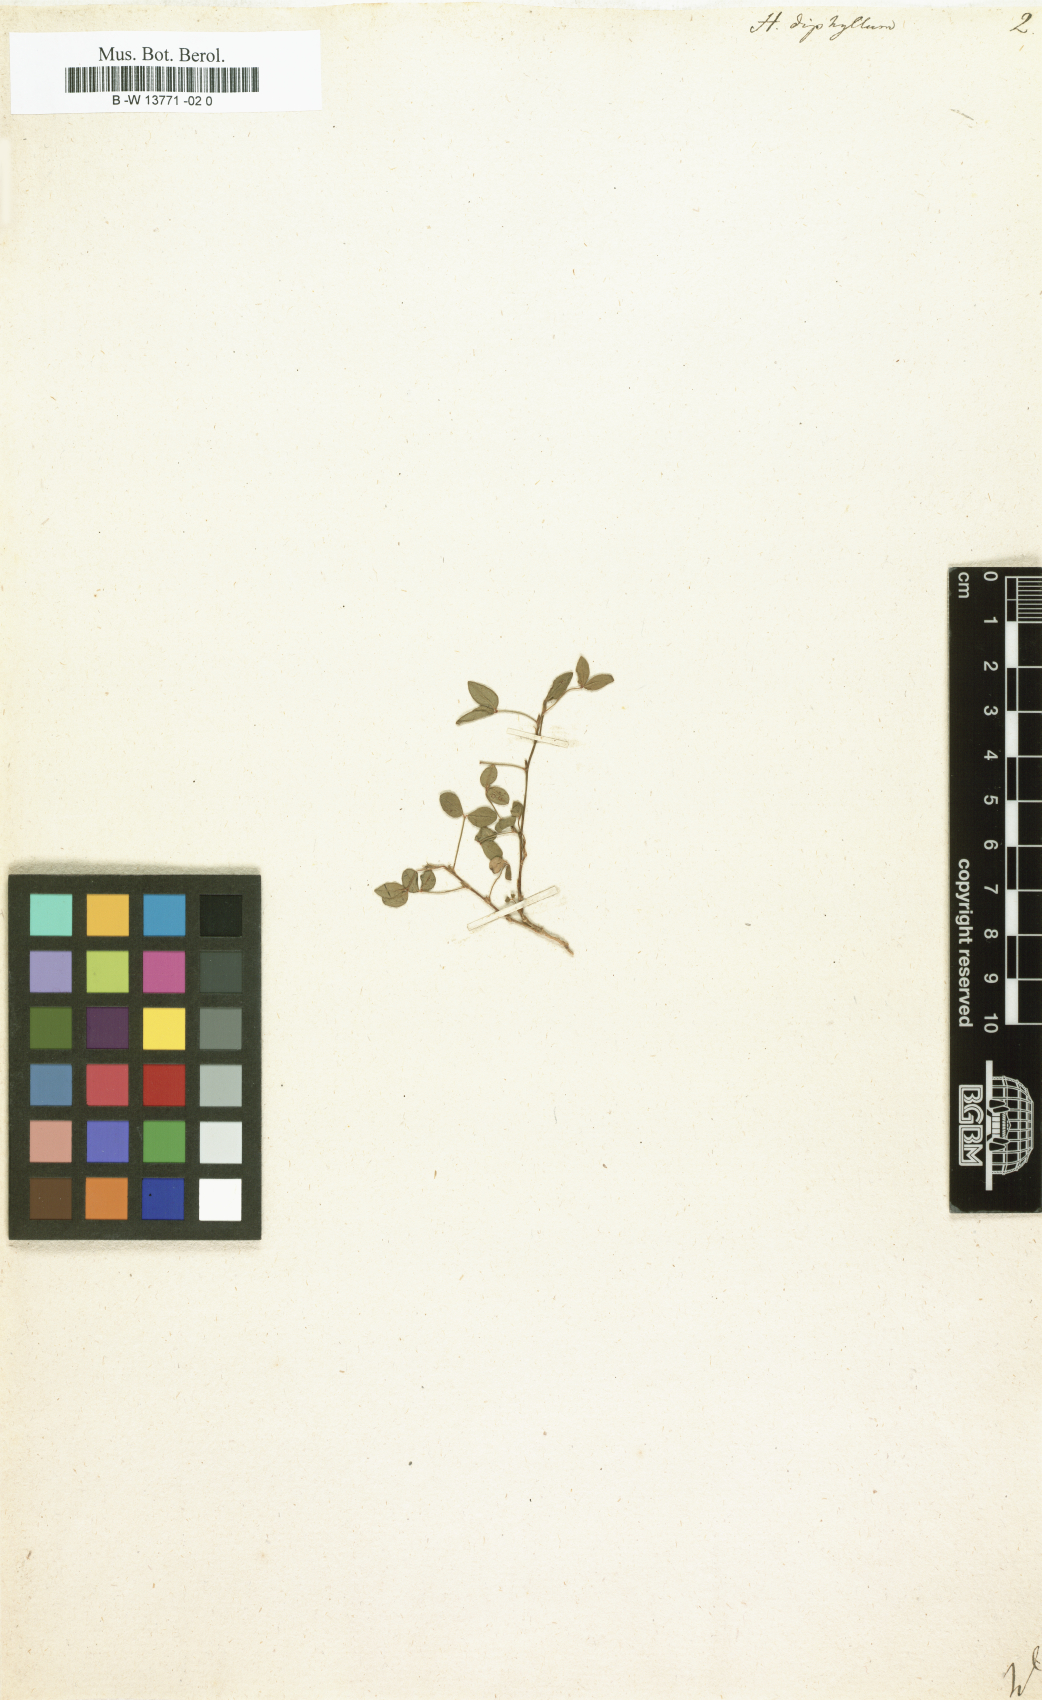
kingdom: Plantae
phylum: Tracheophyta
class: Magnoliopsida
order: Fabales
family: Fabaceae
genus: Zornia
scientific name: Zornia diphylla
